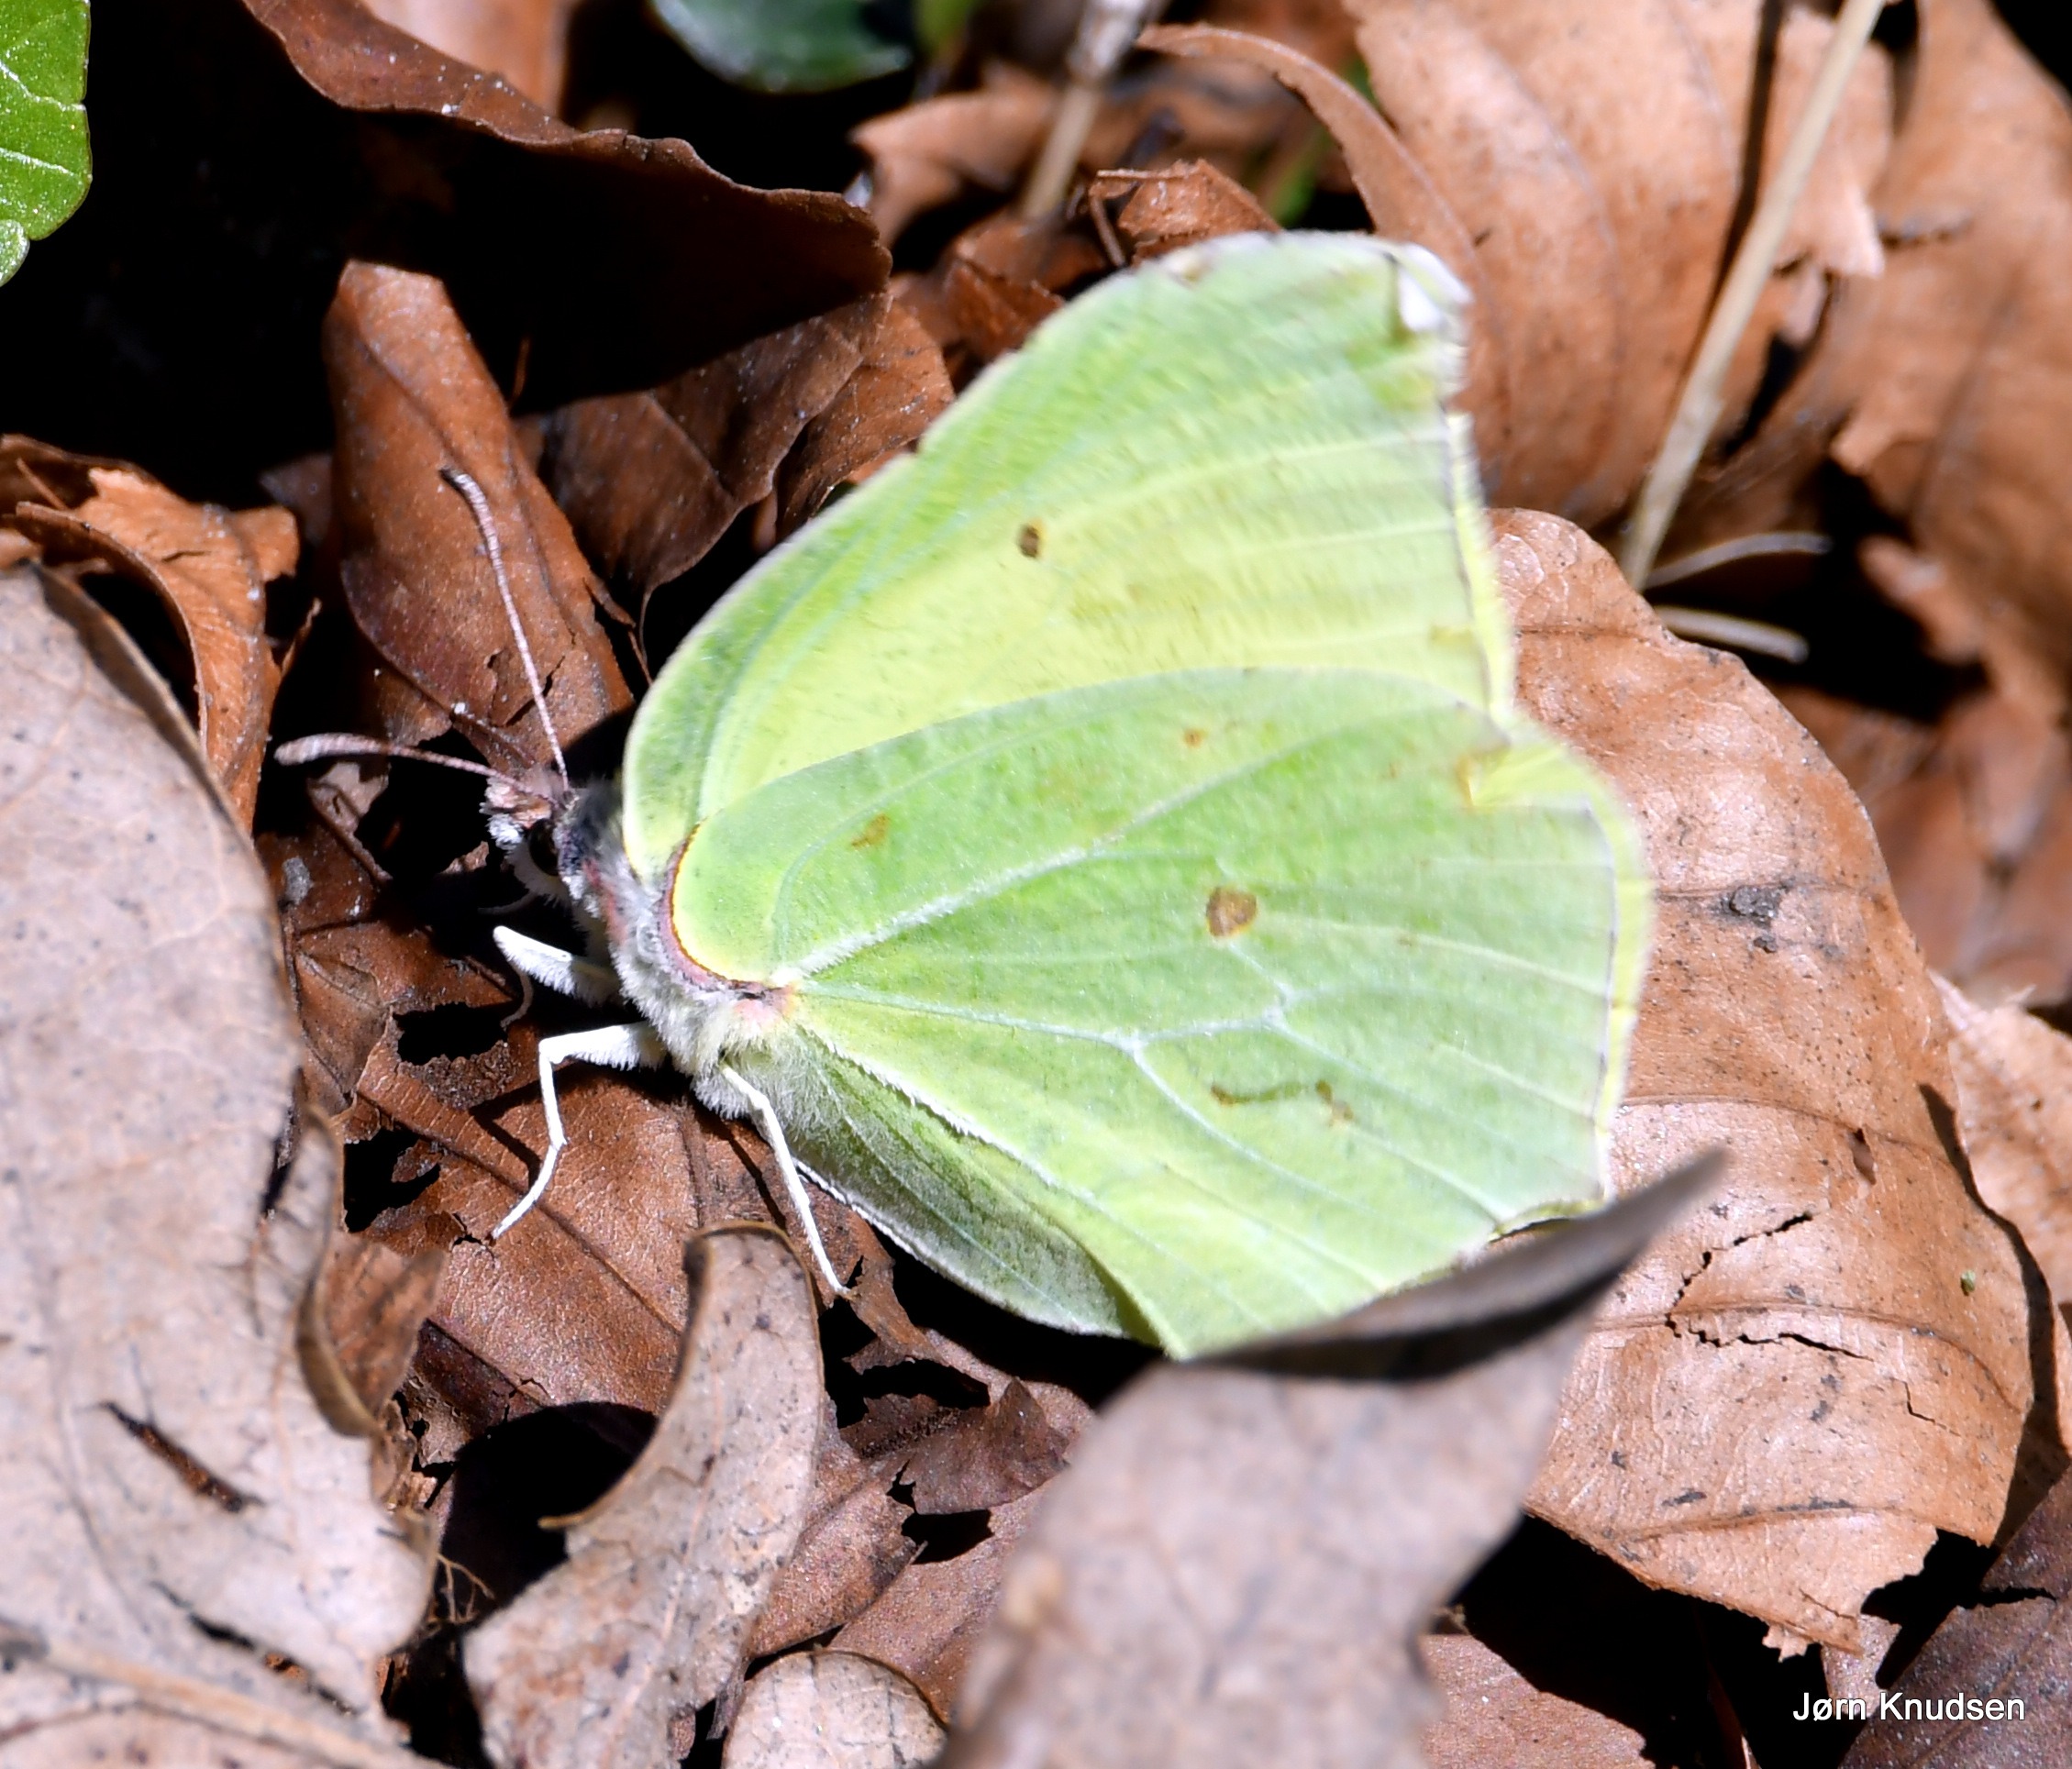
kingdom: Animalia
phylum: Arthropoda
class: Insecta
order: Lepidoptera
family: Pieridae
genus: Gonepteryx
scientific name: Gonepteryx rhamni
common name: Citronsommerfugl
